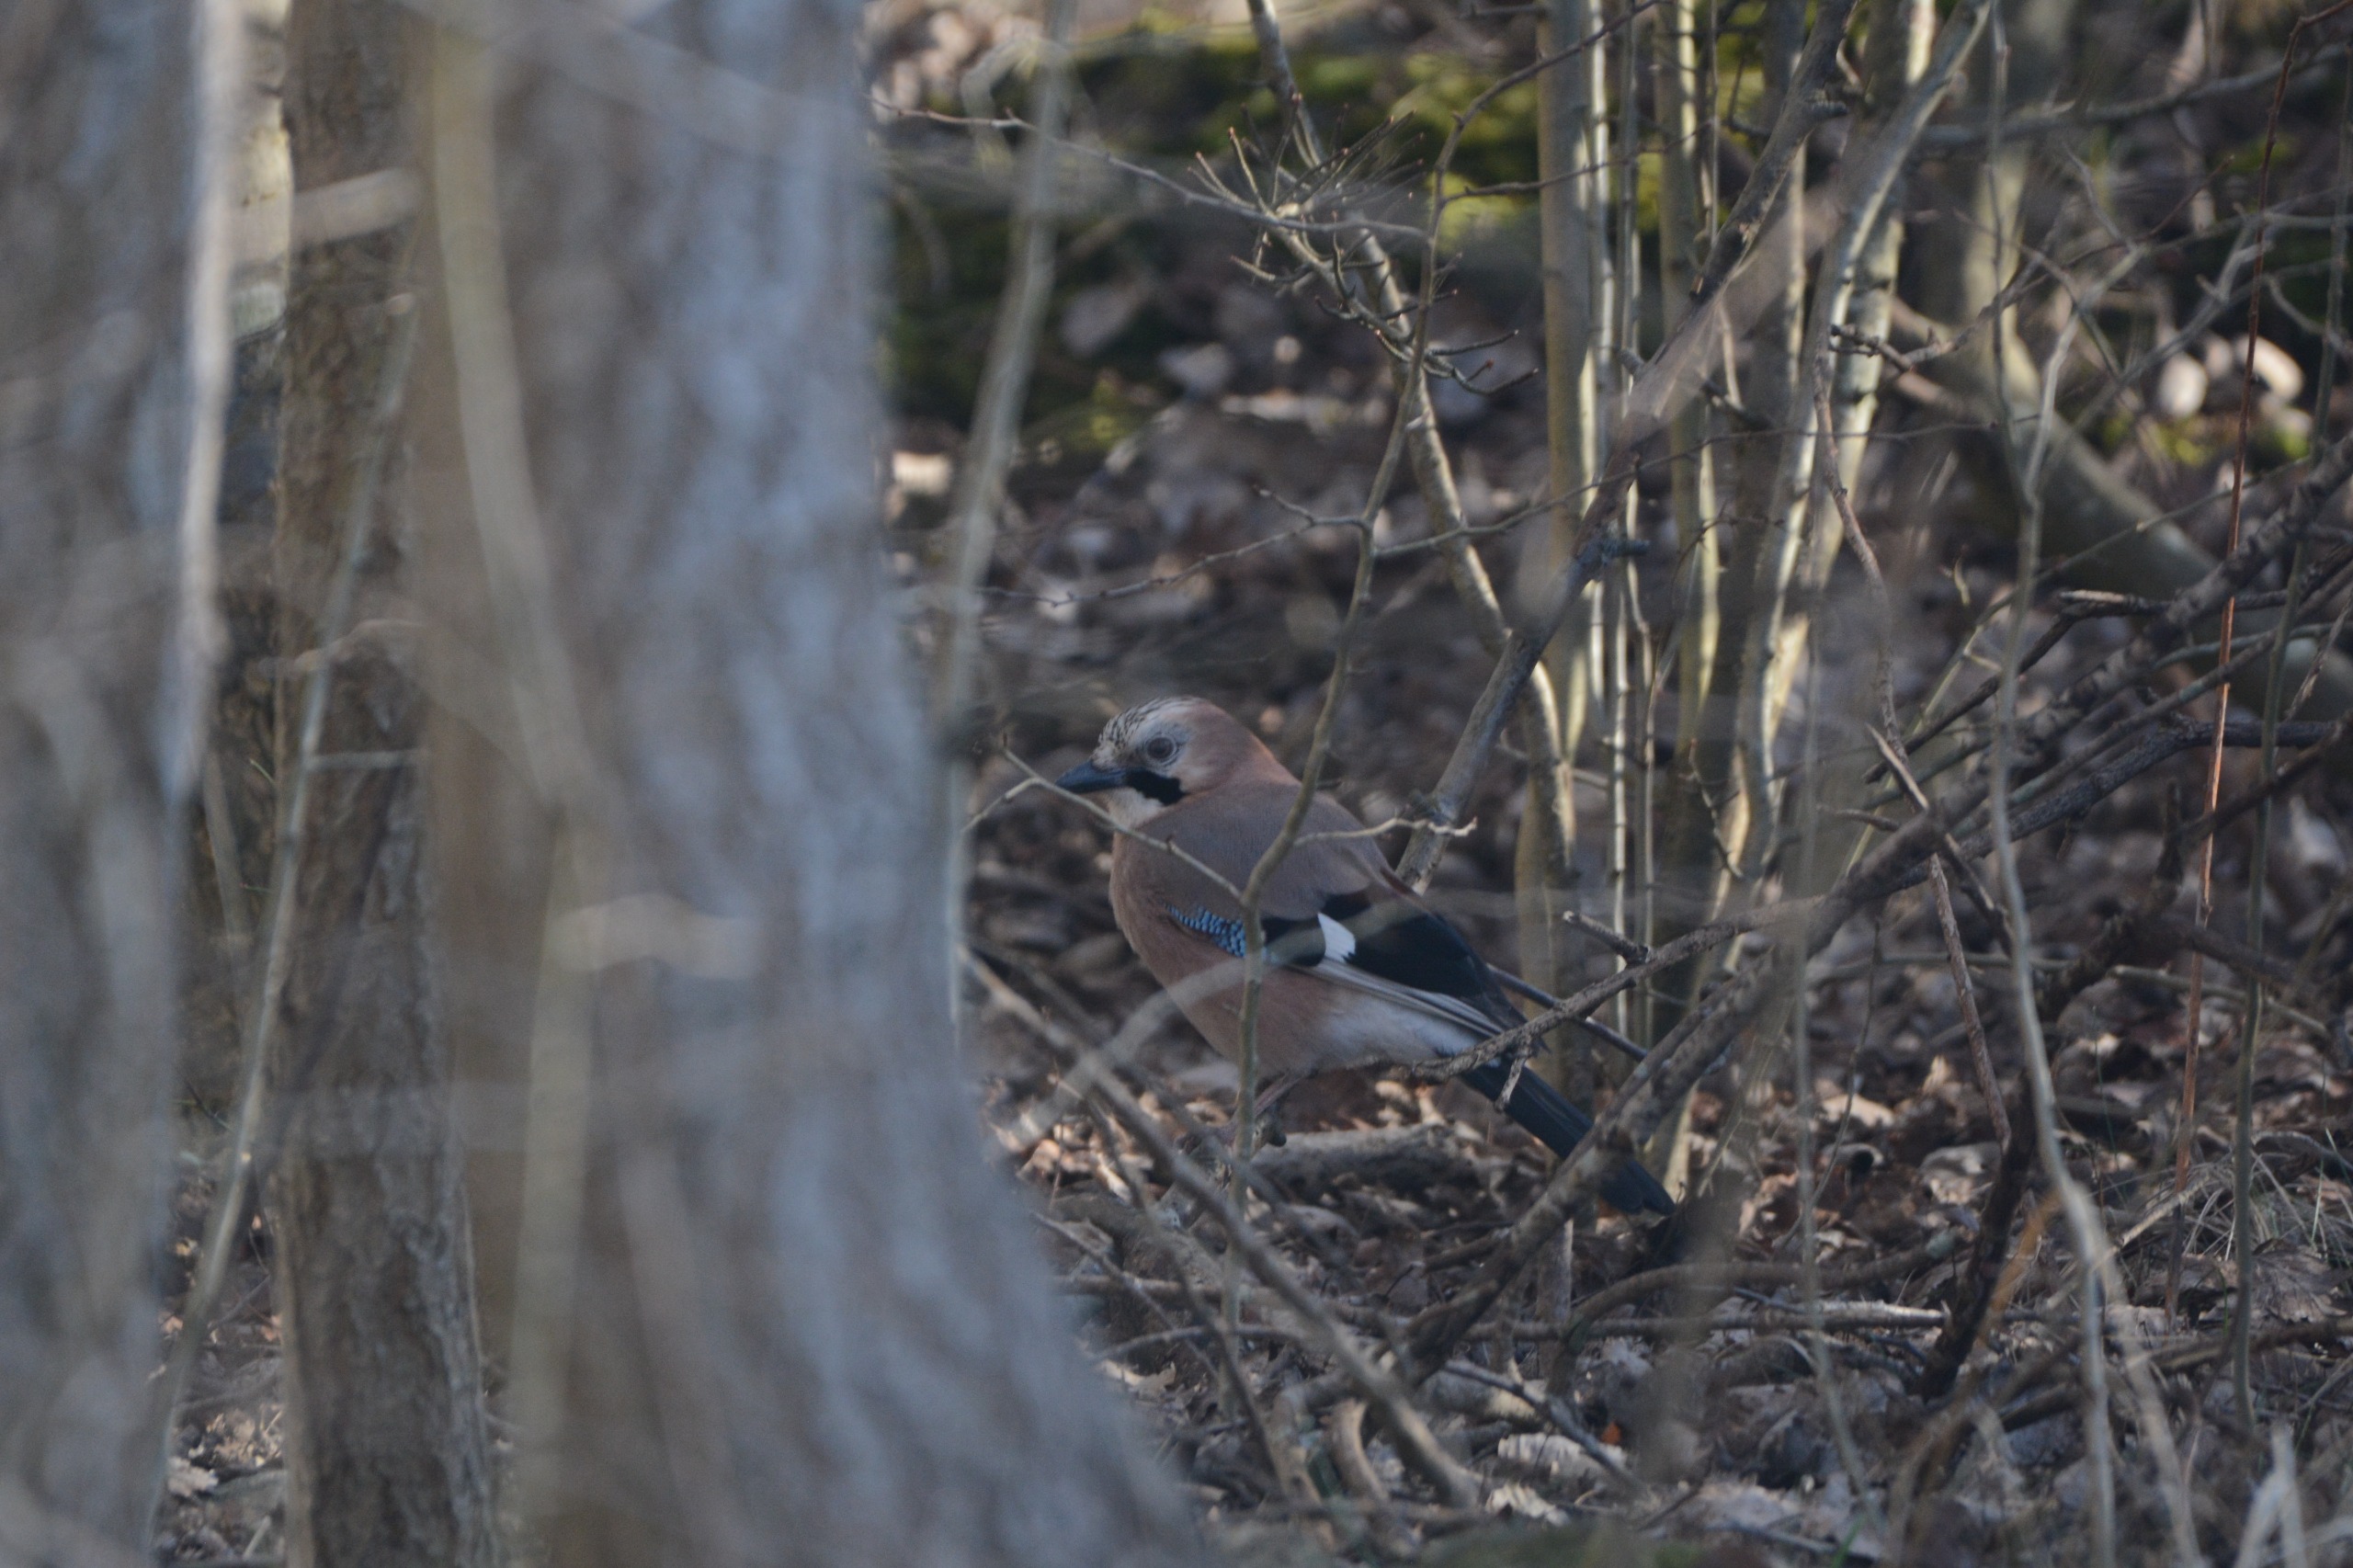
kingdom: Animalia
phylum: Chordata
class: Aves
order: Passeriformes
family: Corvidae
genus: Garrulus
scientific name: Garrulus glandarius
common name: Skovskade
